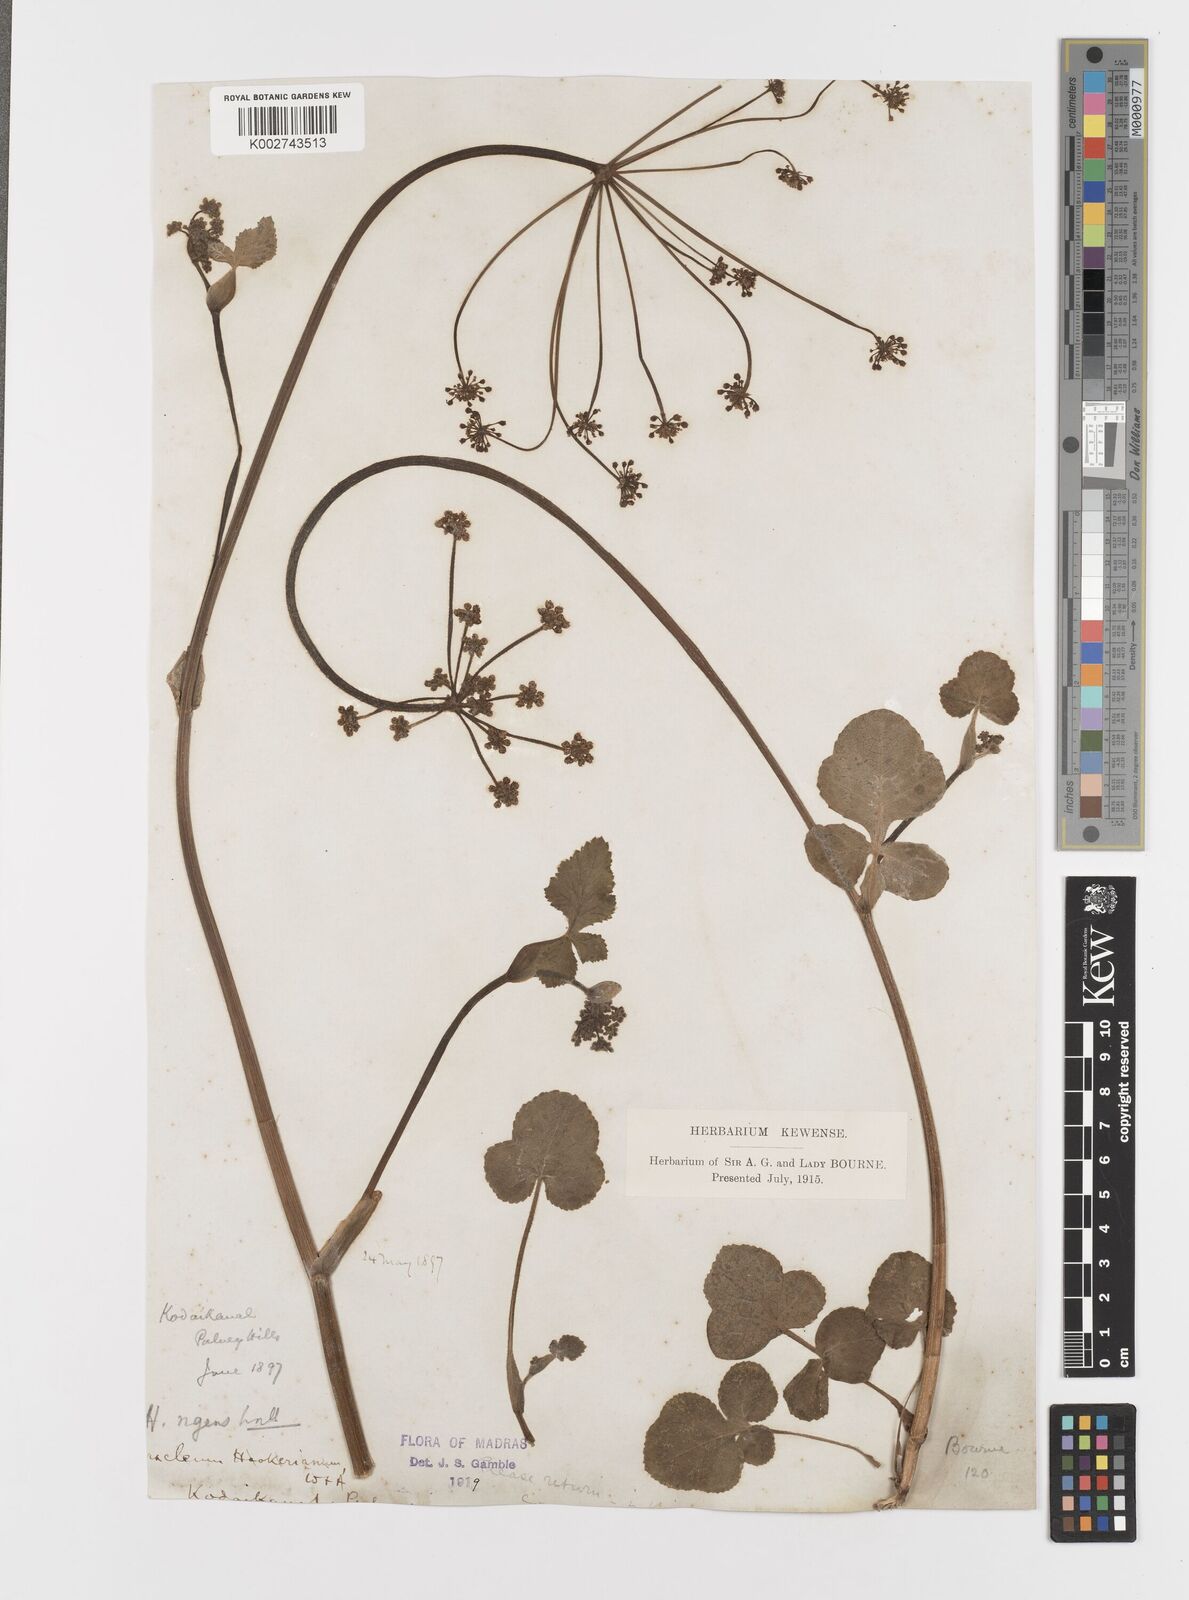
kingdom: Plantae
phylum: Tracheophyta
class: Magnoliopsida
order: Apiales
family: Apiaceae
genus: Tetrataenium
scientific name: Tetrataenium rigens
